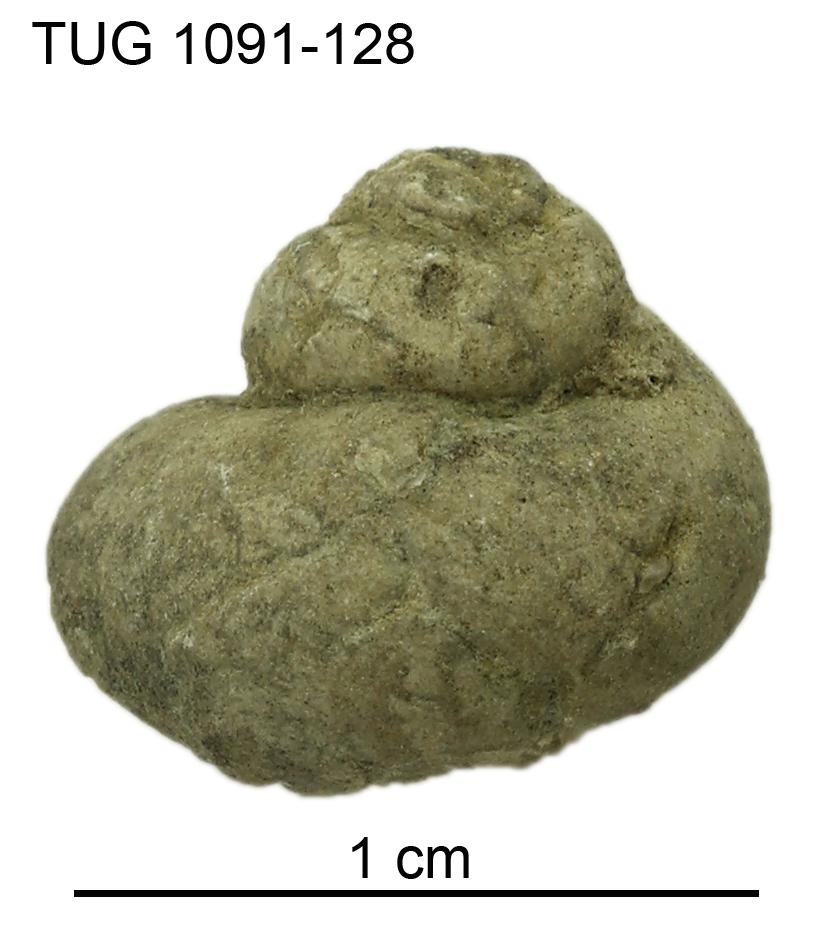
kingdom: Animalia
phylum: Mollusca
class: Gastropoda
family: Platyceratidae
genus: Naticonema
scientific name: Naticonema
